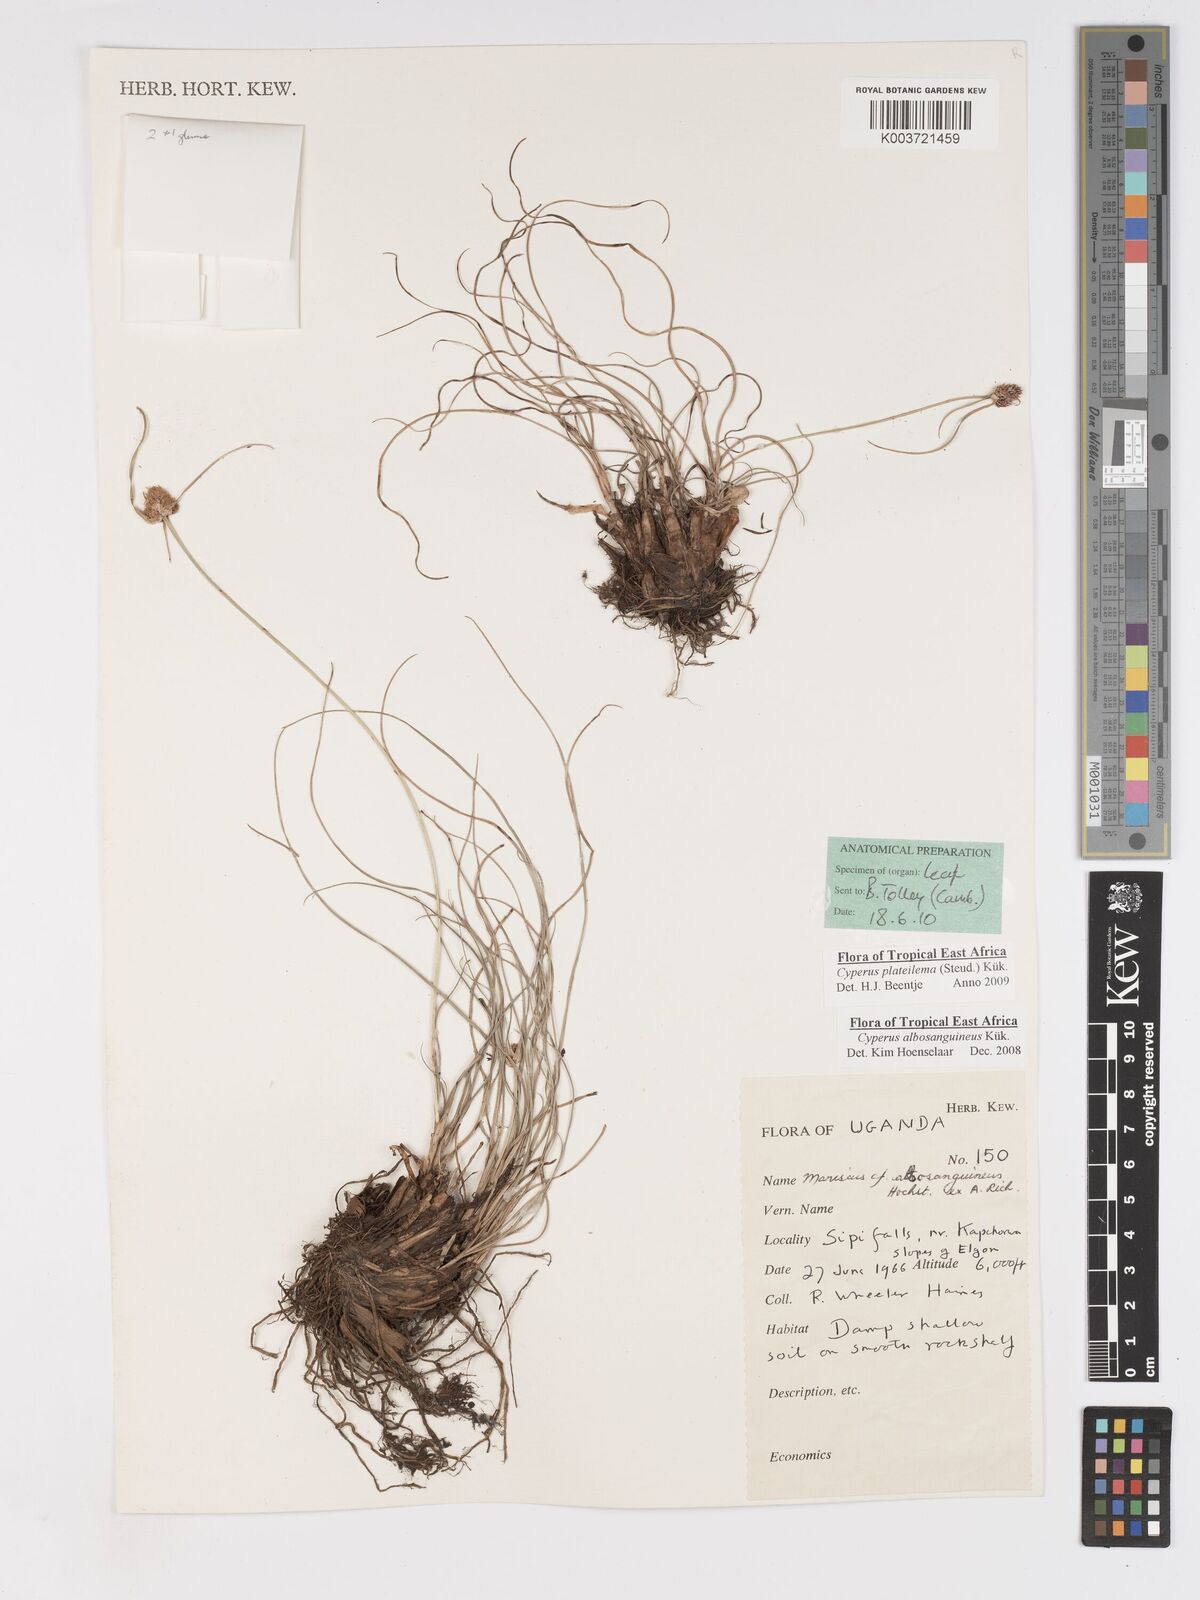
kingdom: Plantae
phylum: Tracheophyta
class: Liliopsida
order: Poales
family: Cyperaceae
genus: Cyperus
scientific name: Cyperus plateilema
